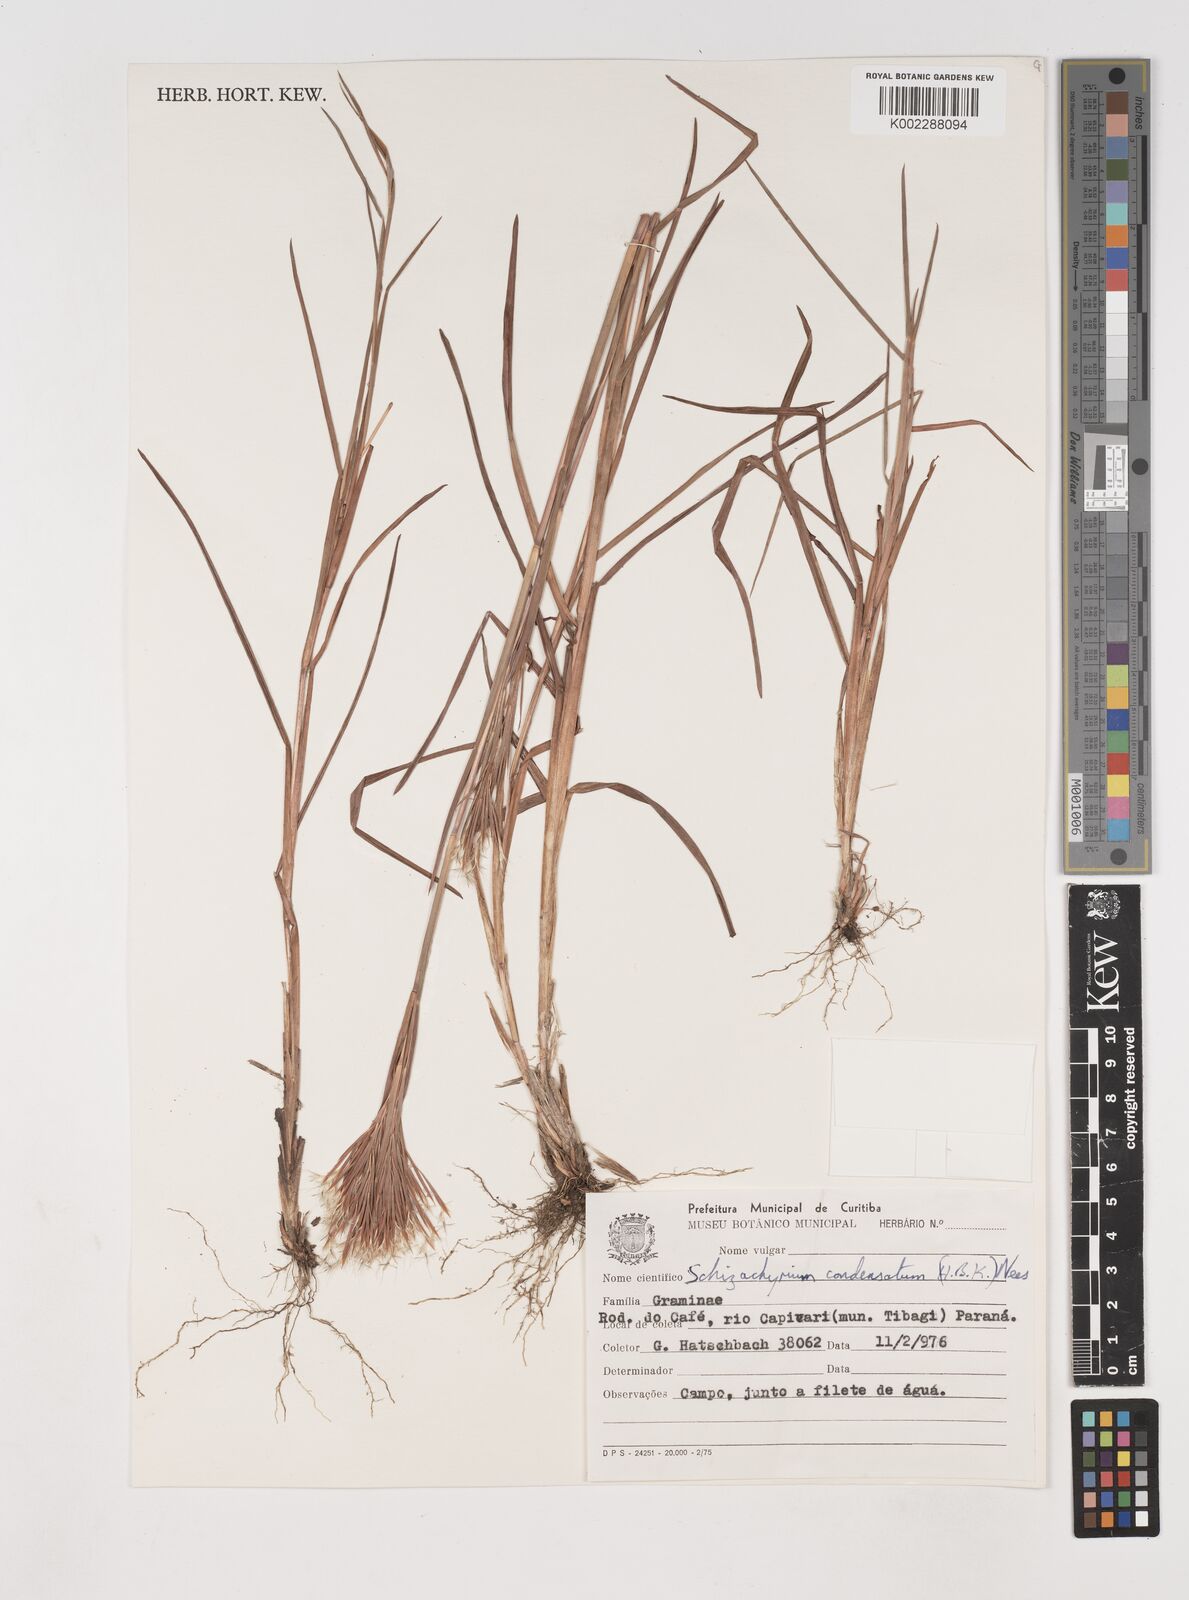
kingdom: Plantae
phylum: Tracheophyta
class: Liliopsida
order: Poales
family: Poaceae
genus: Schizachyrium
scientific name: Schizachyrium condensatum
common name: Bush beardgrass
